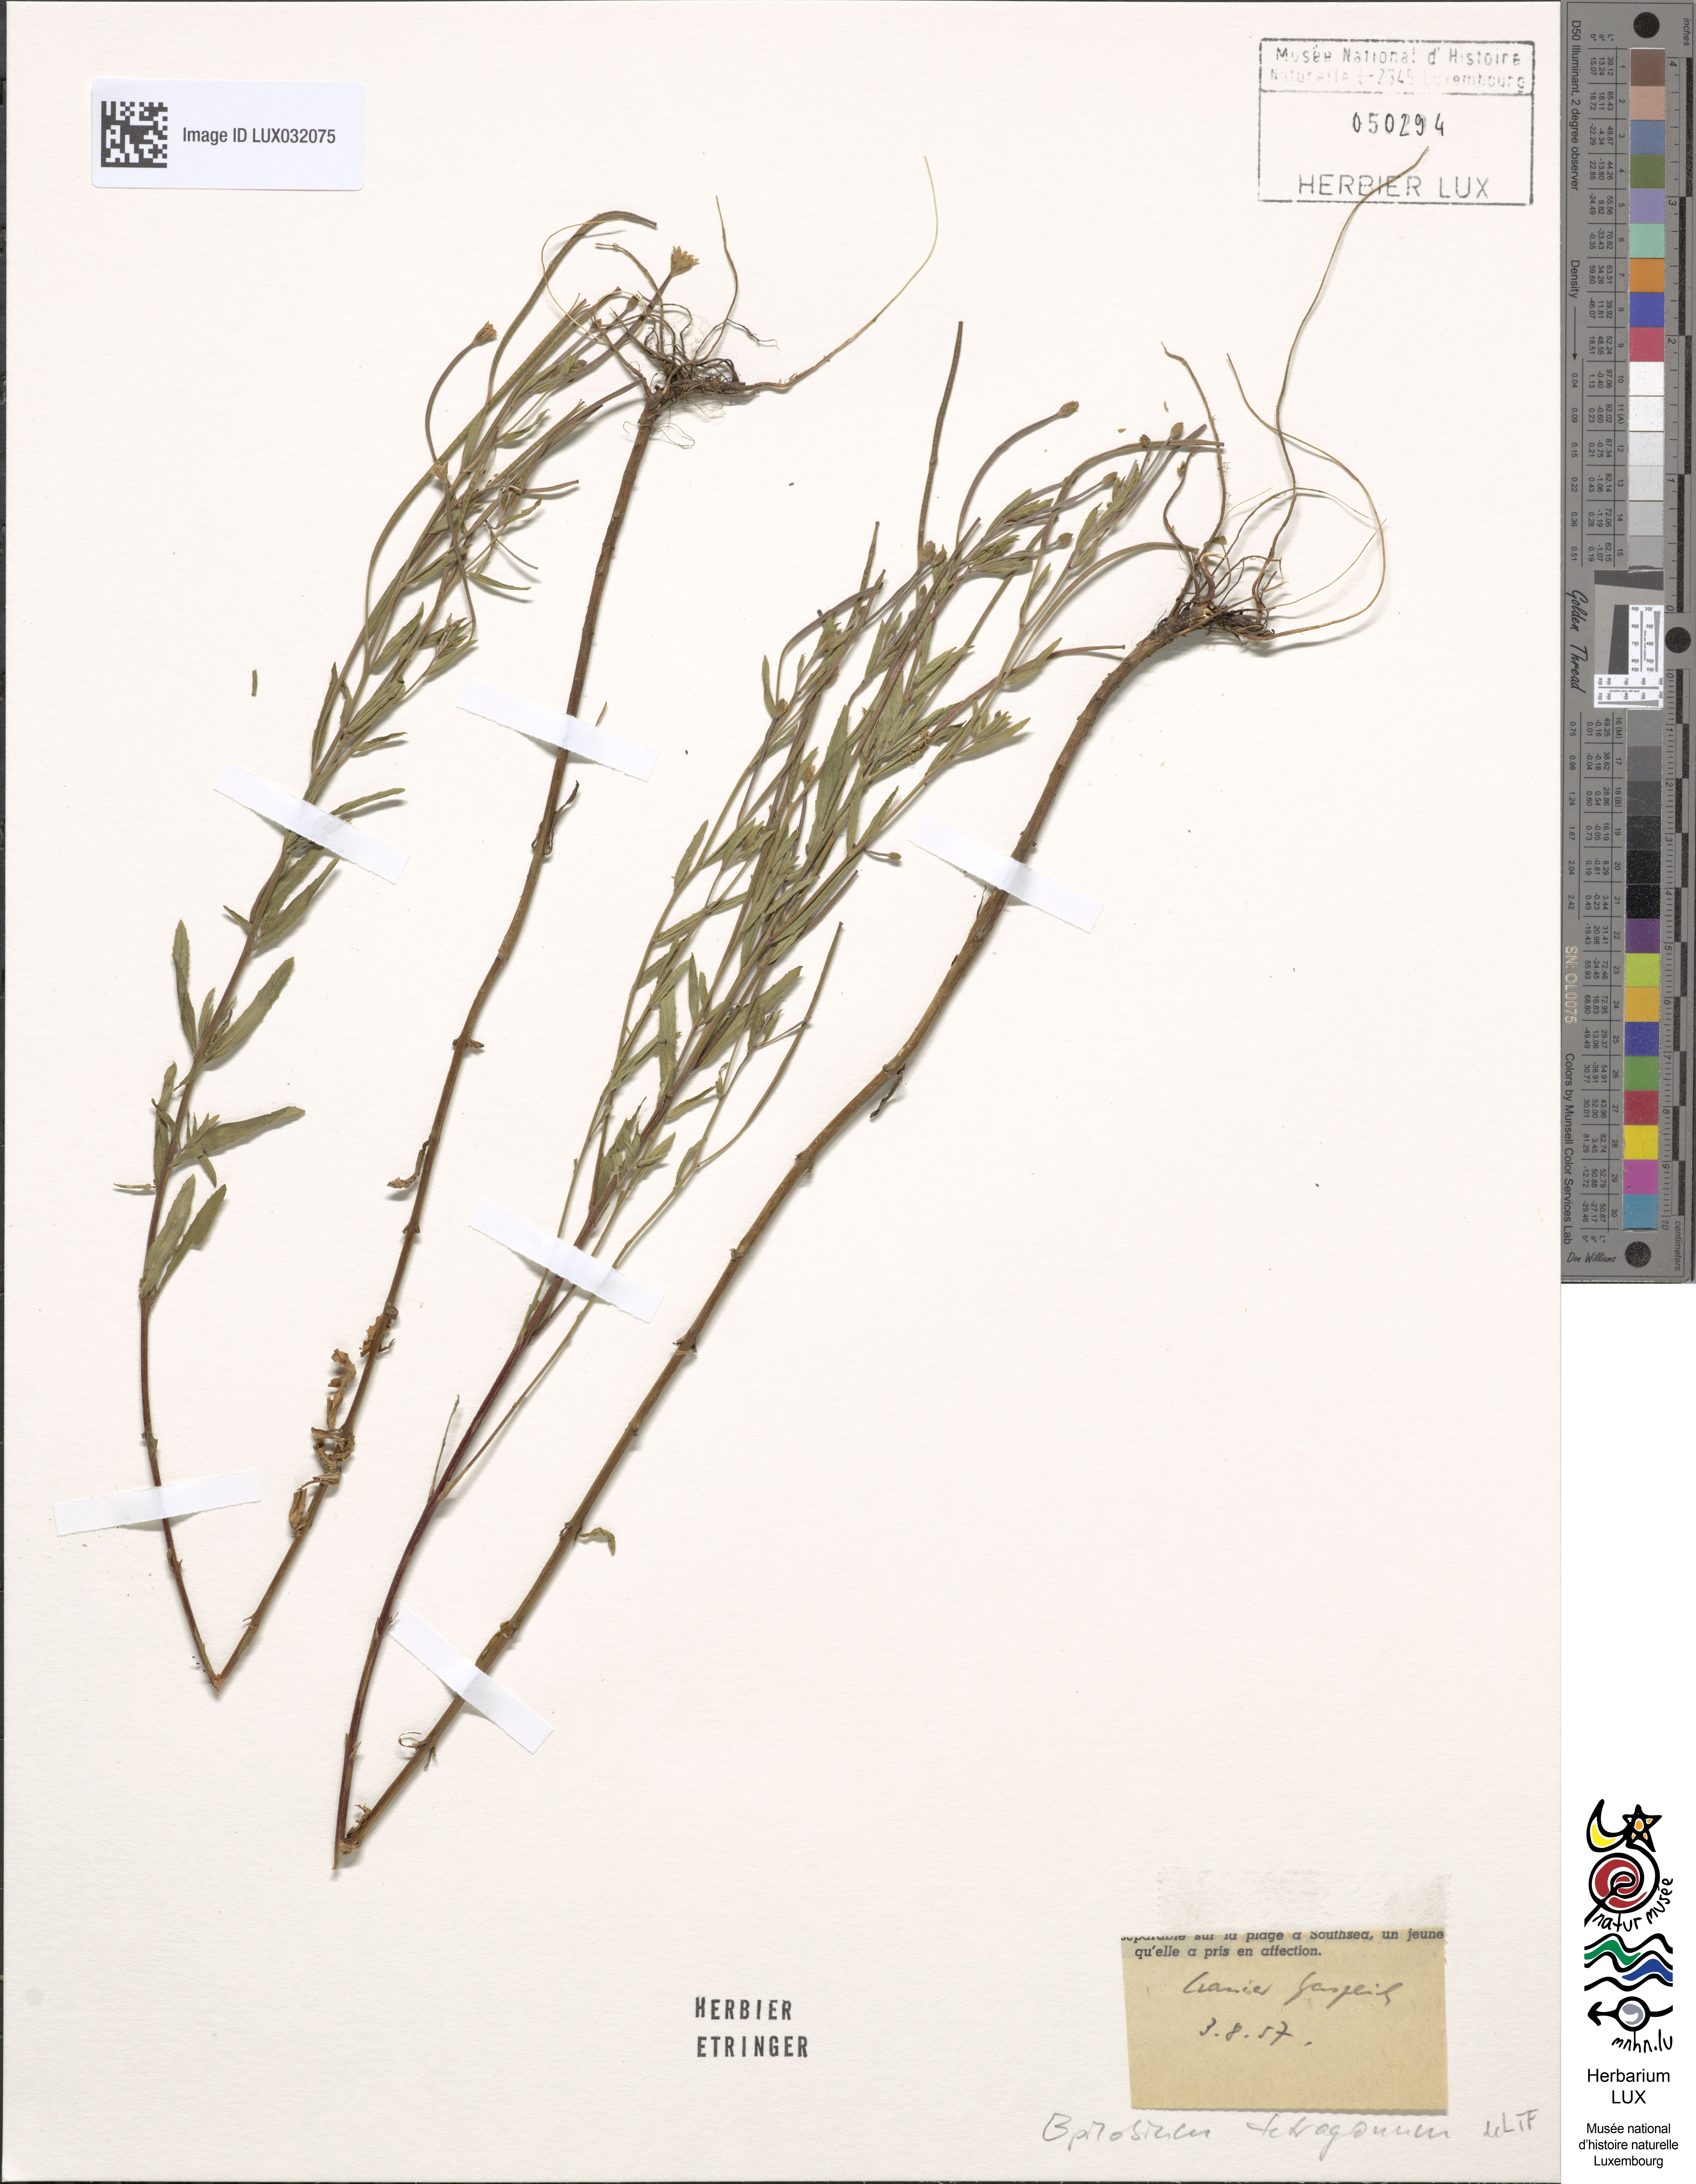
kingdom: Plantae
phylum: Tracheophyta
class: Magnoliopsida
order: Myrtales
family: Onagraceae
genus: Epilobium
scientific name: Epilobium tetragonum
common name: Square-stemmed willowherb
